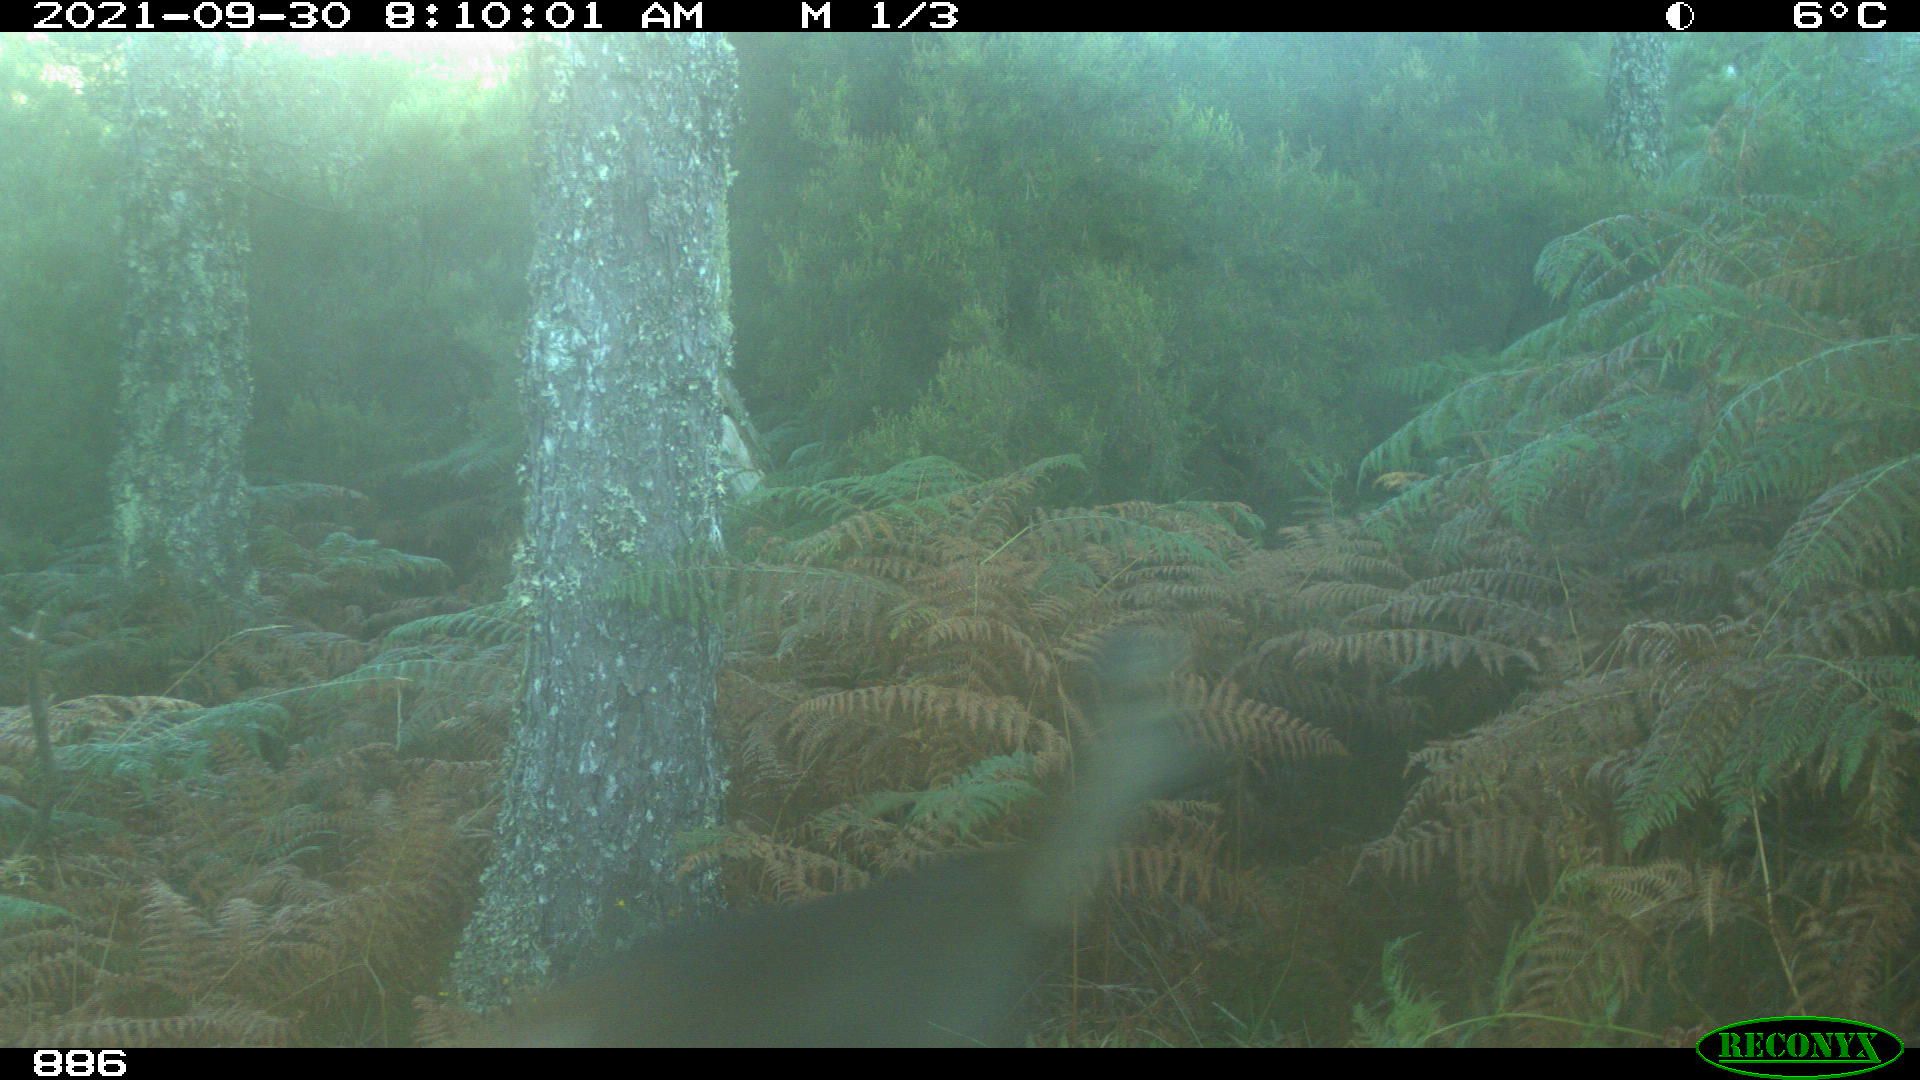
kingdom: Animalia
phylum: Chordata
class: Mammalia
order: Artiodactyla
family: Cervidae
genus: Capreolus
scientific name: Capreolus capreolus
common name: Western roe deer
